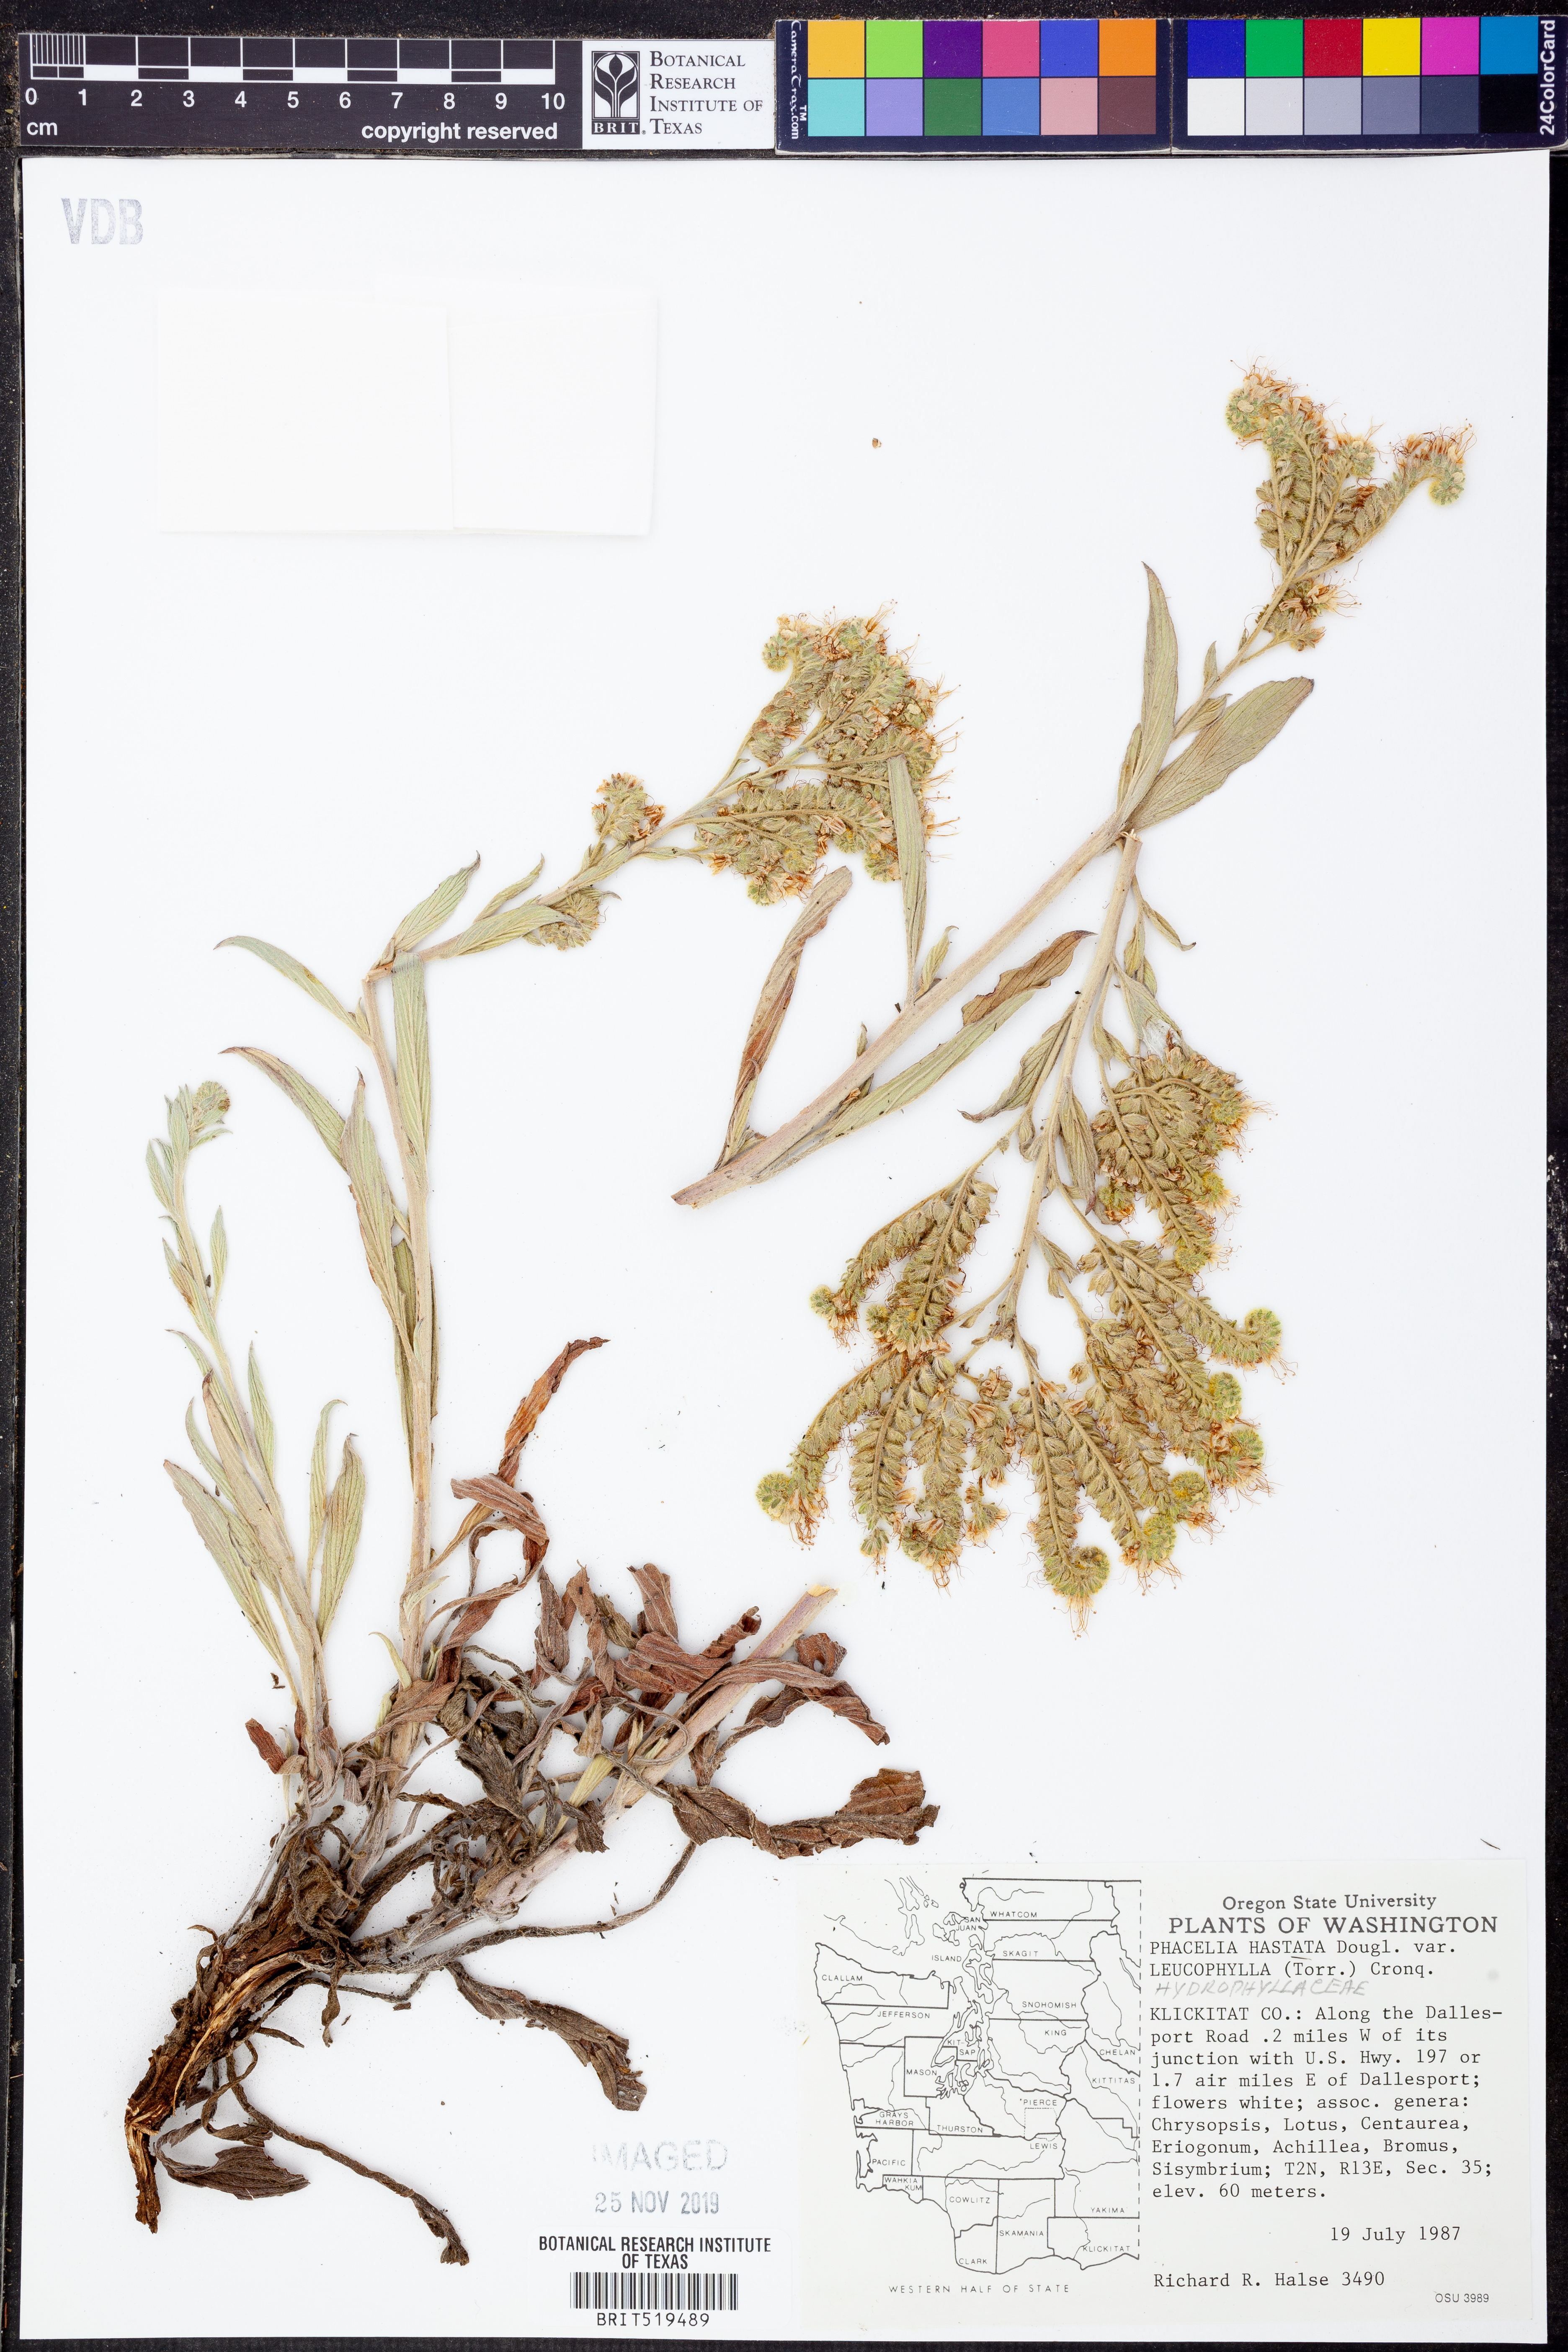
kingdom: Plantae
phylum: Tracheophyta
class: Magnoliopsida
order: Boraginales
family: Hydrophyllaceae
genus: Phacelia
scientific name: Phacelia hastata
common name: Silver-leaved phacelia
